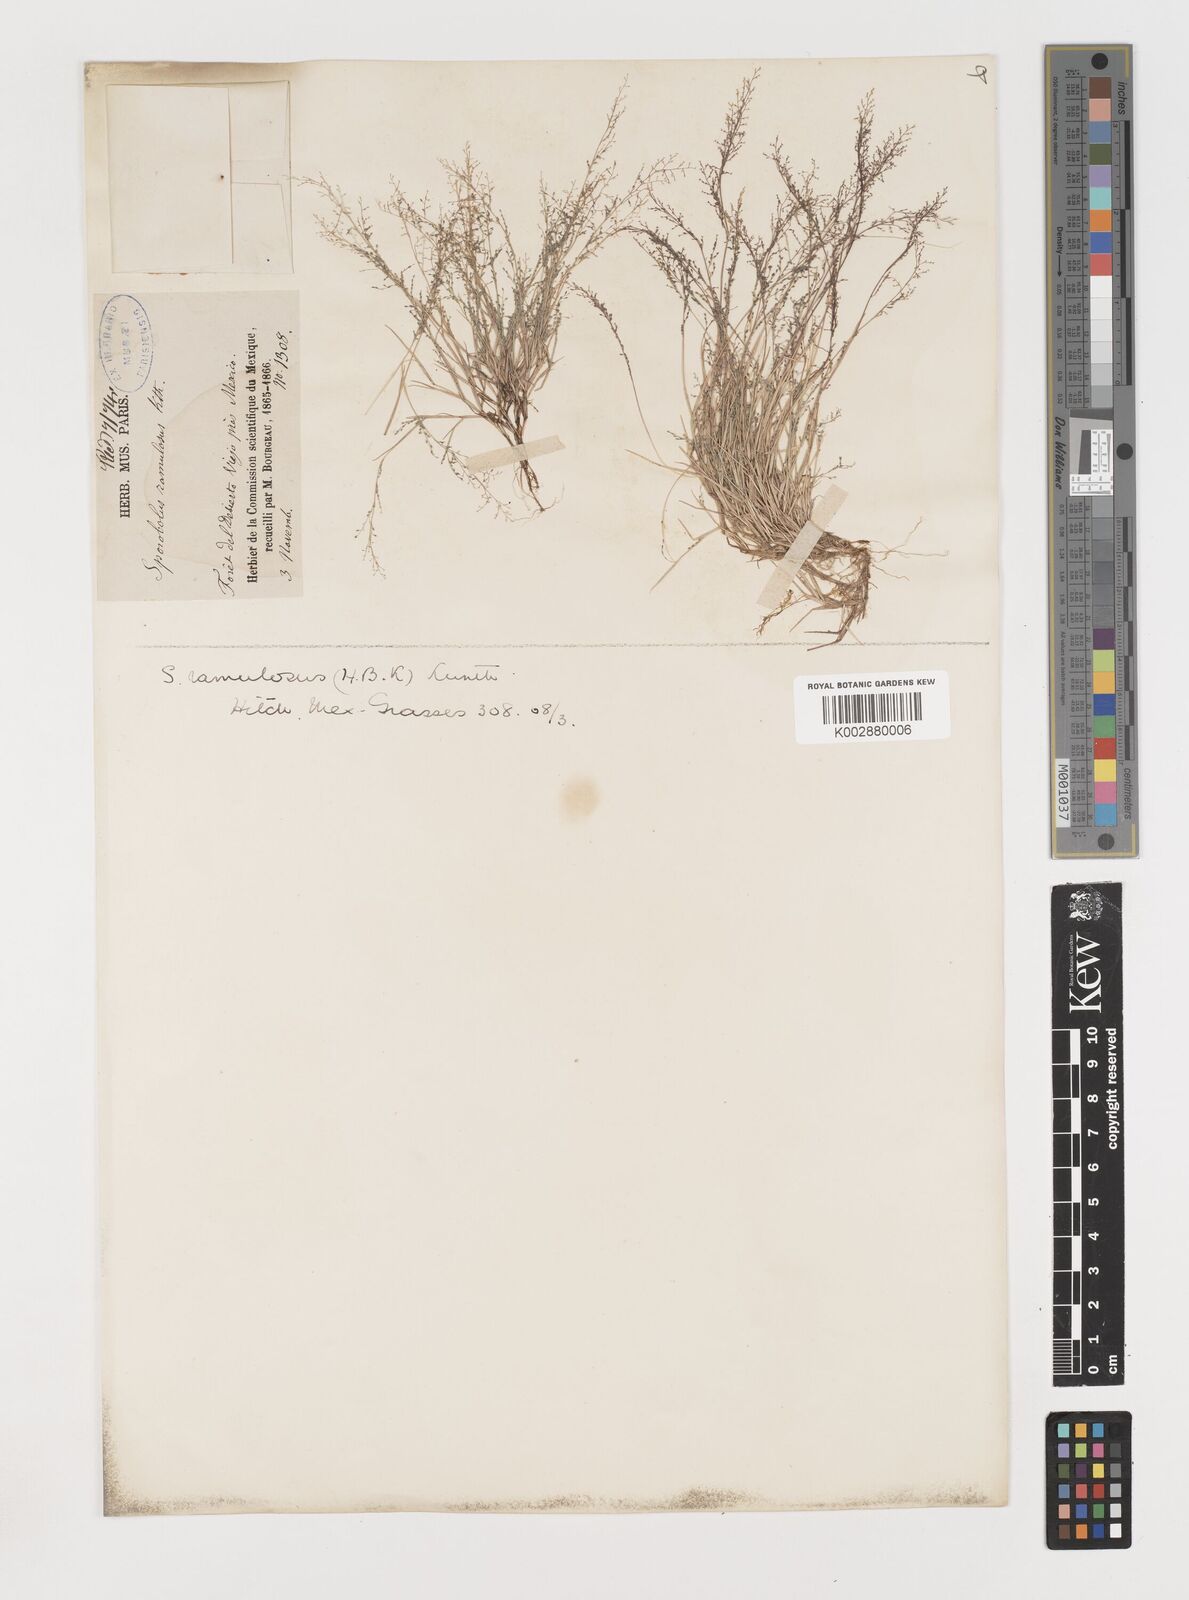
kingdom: Plantae
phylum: Tracheophyta
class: Liliopsida
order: Poales
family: Poaceae
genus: Muhlenbergia
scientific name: Muhlenbergia ramulosa
